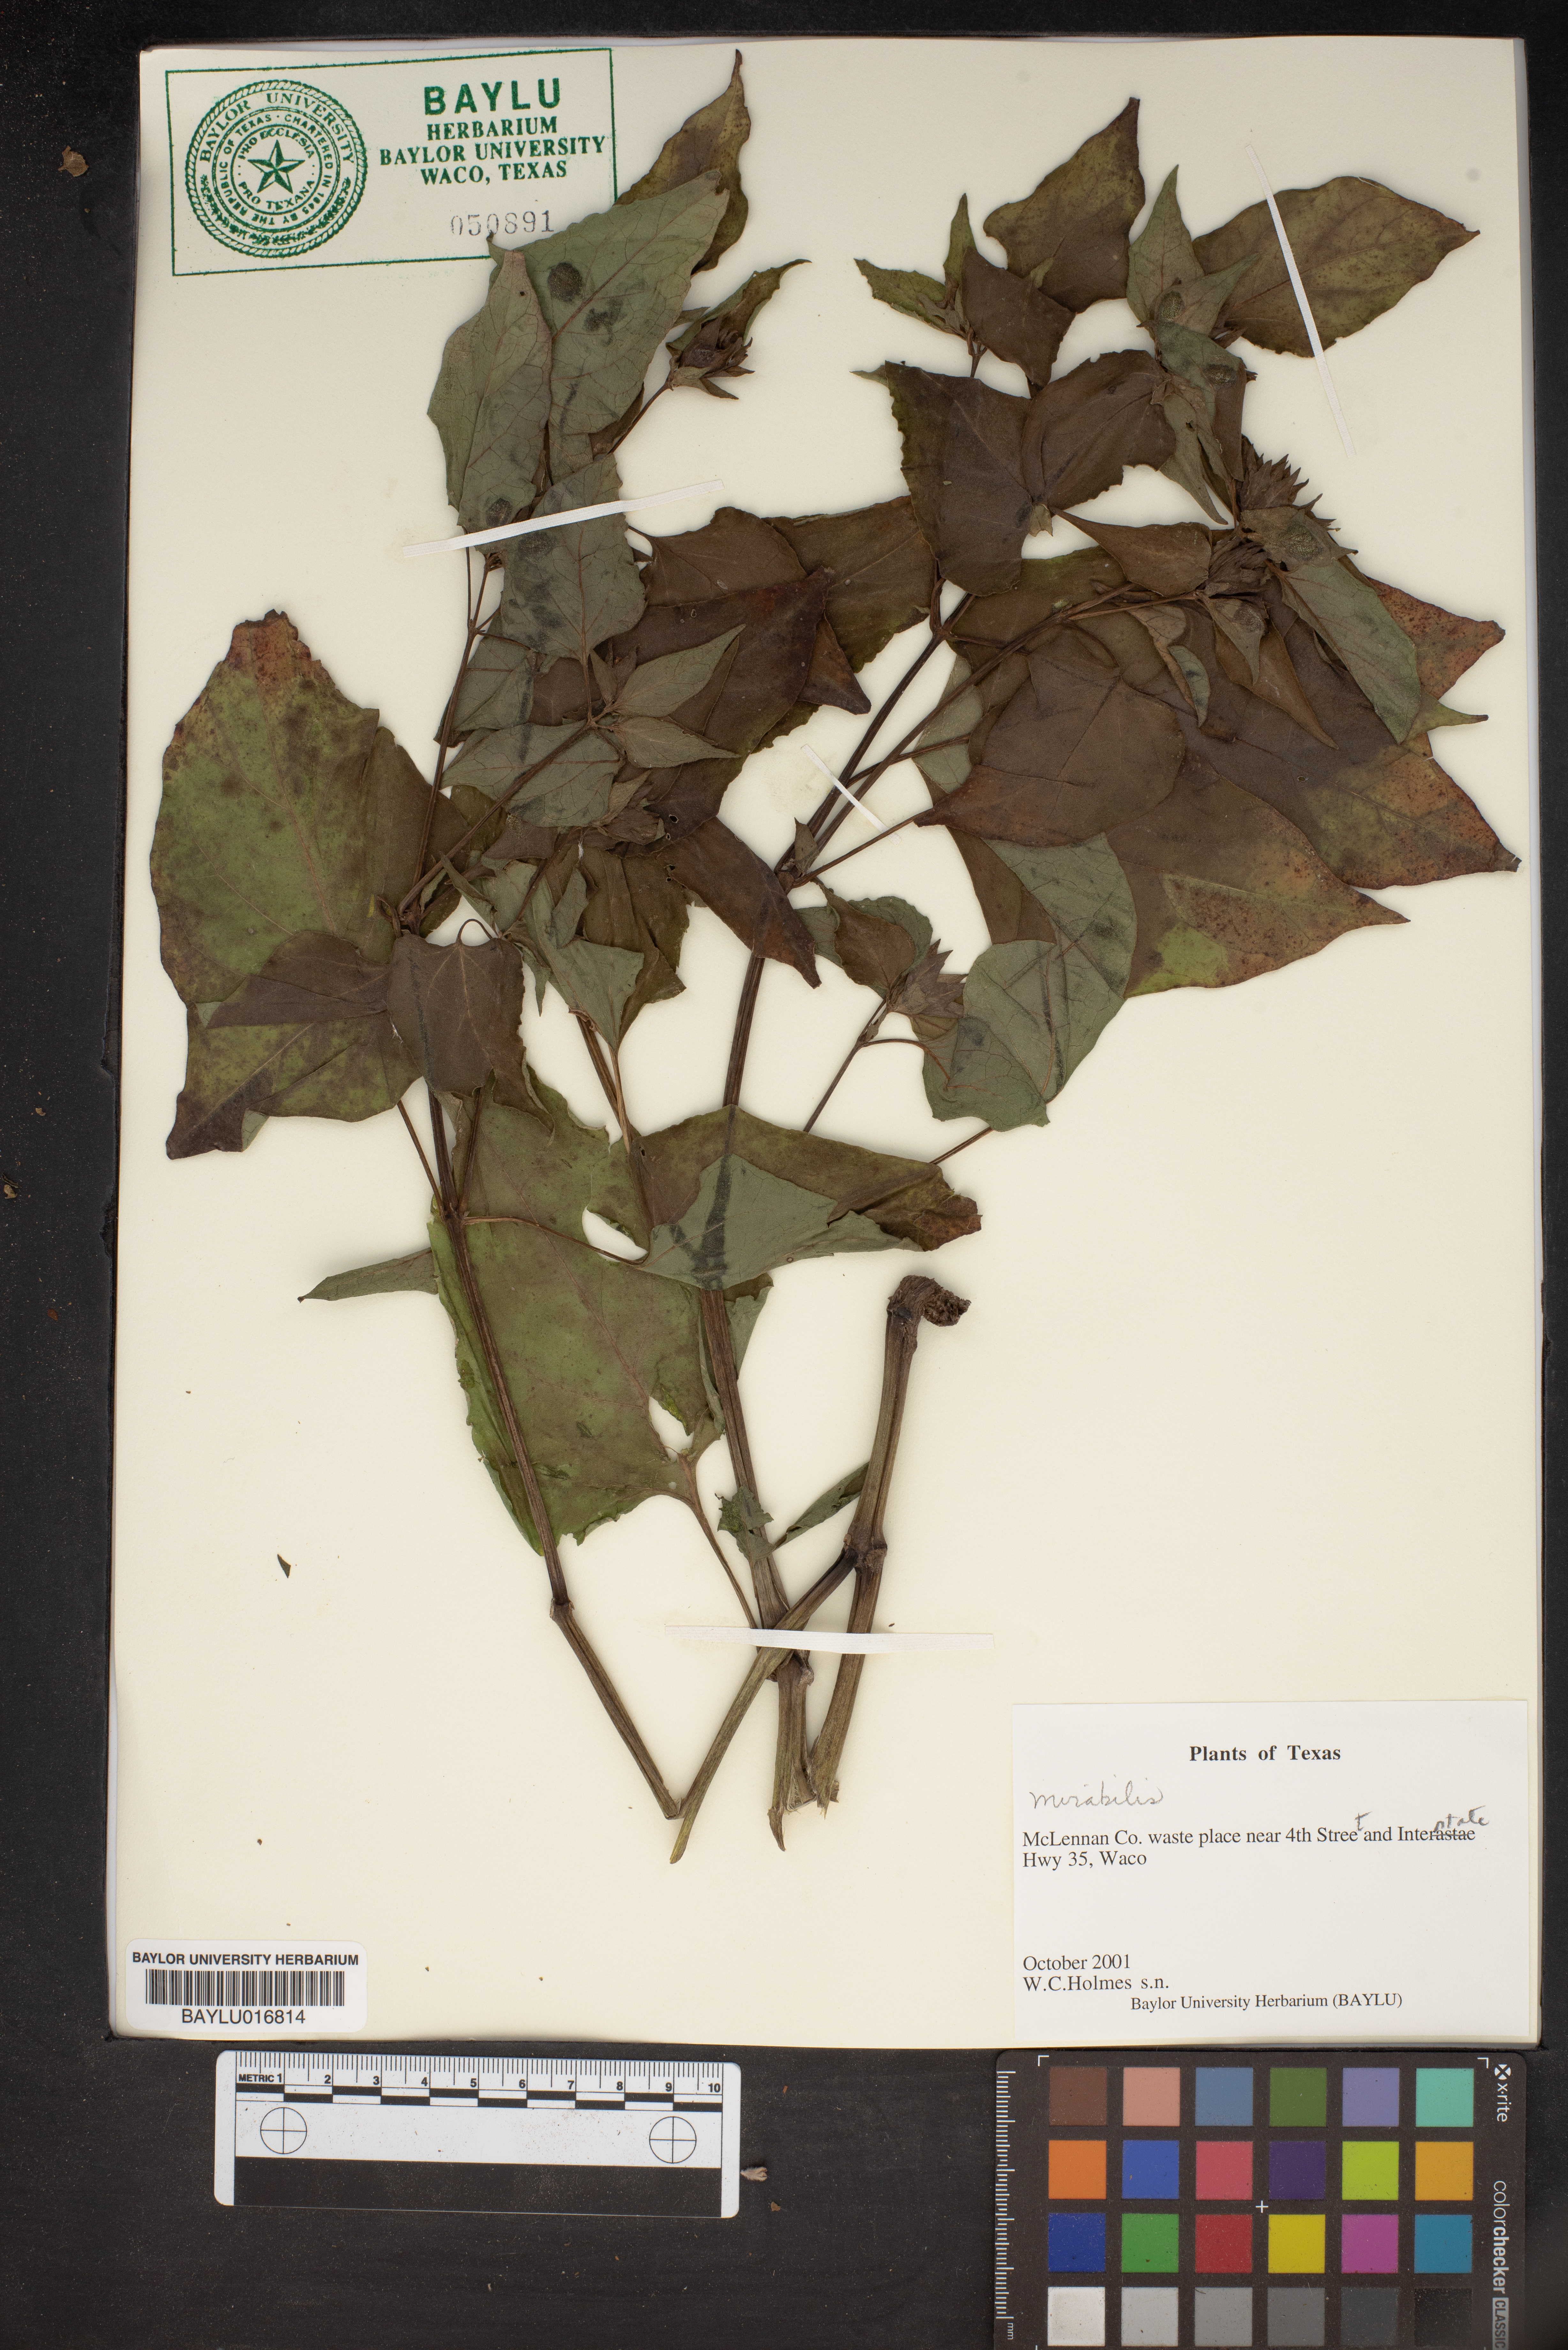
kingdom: Plantae
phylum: Tracheophyta
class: Magnoliopsida
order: Caryophyllales
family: Nyctaginaceae
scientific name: Nyctaginaceae
